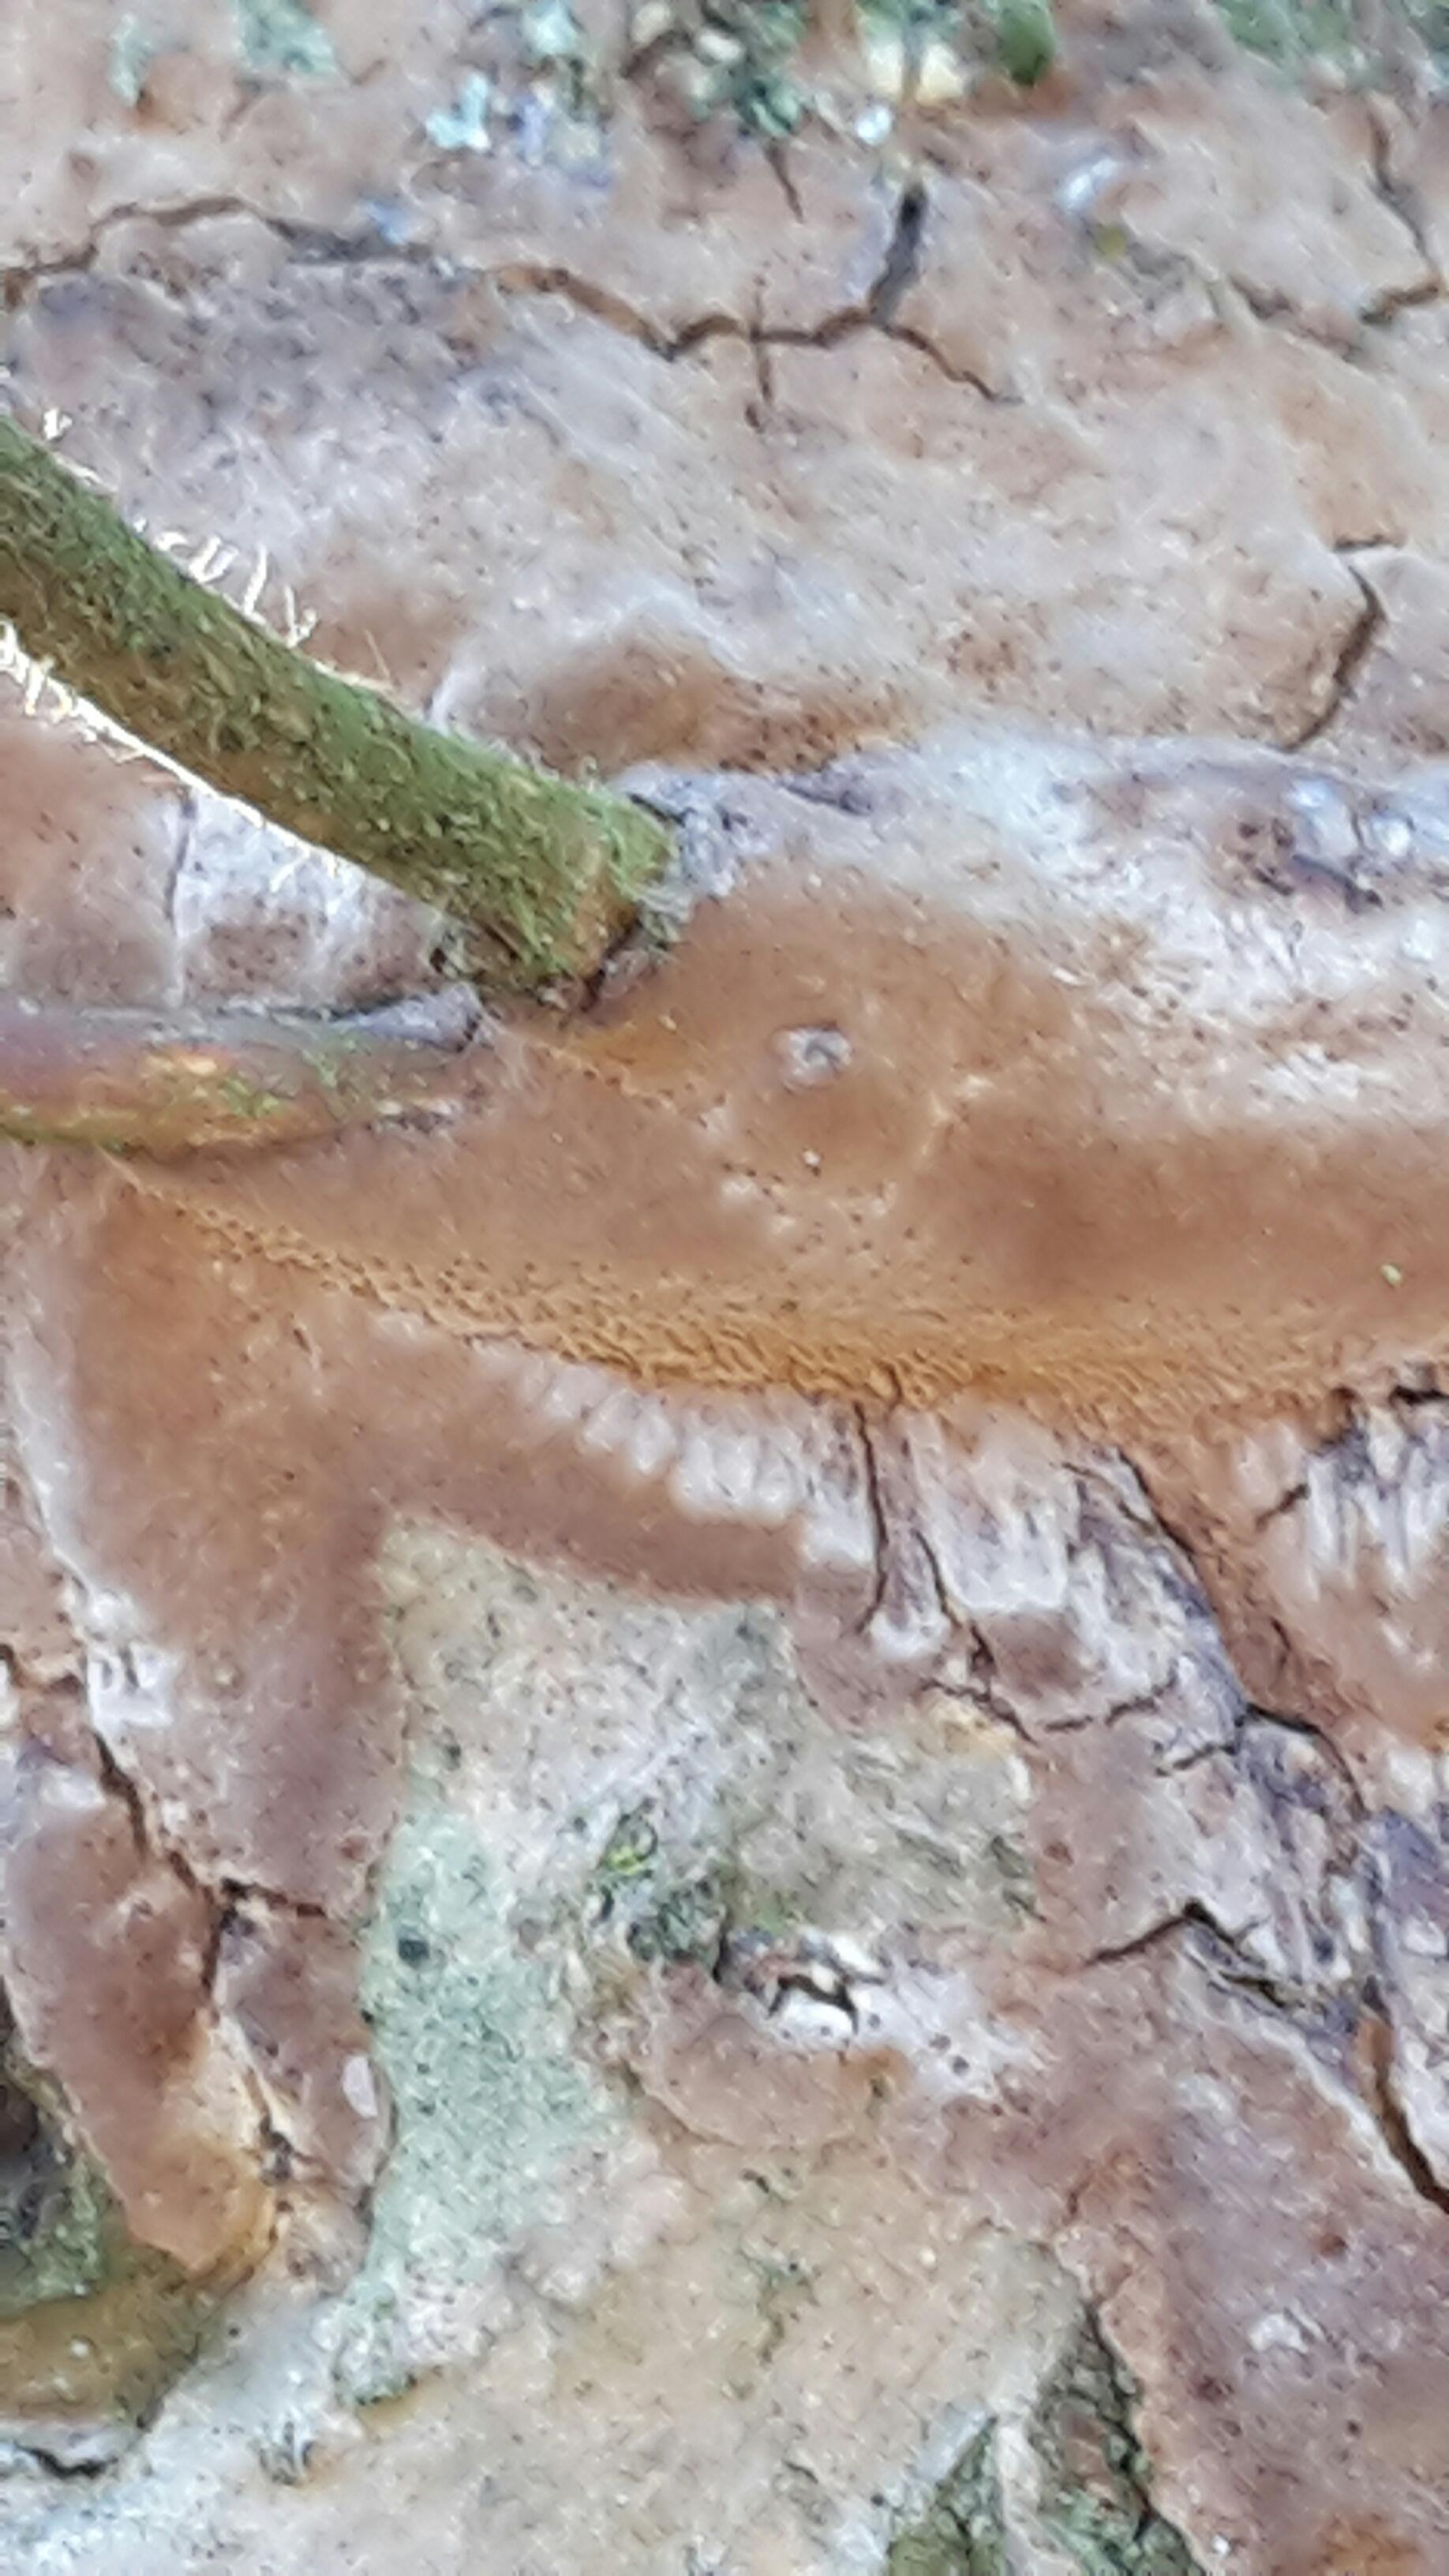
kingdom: Fungi
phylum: Basidiomycota
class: Agaricomycetes
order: Hymenochaetales
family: Hymenochaetaceae
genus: Fuscoporia
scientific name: Fuscoporia ferrea
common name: skorpe-ildporesvamp
